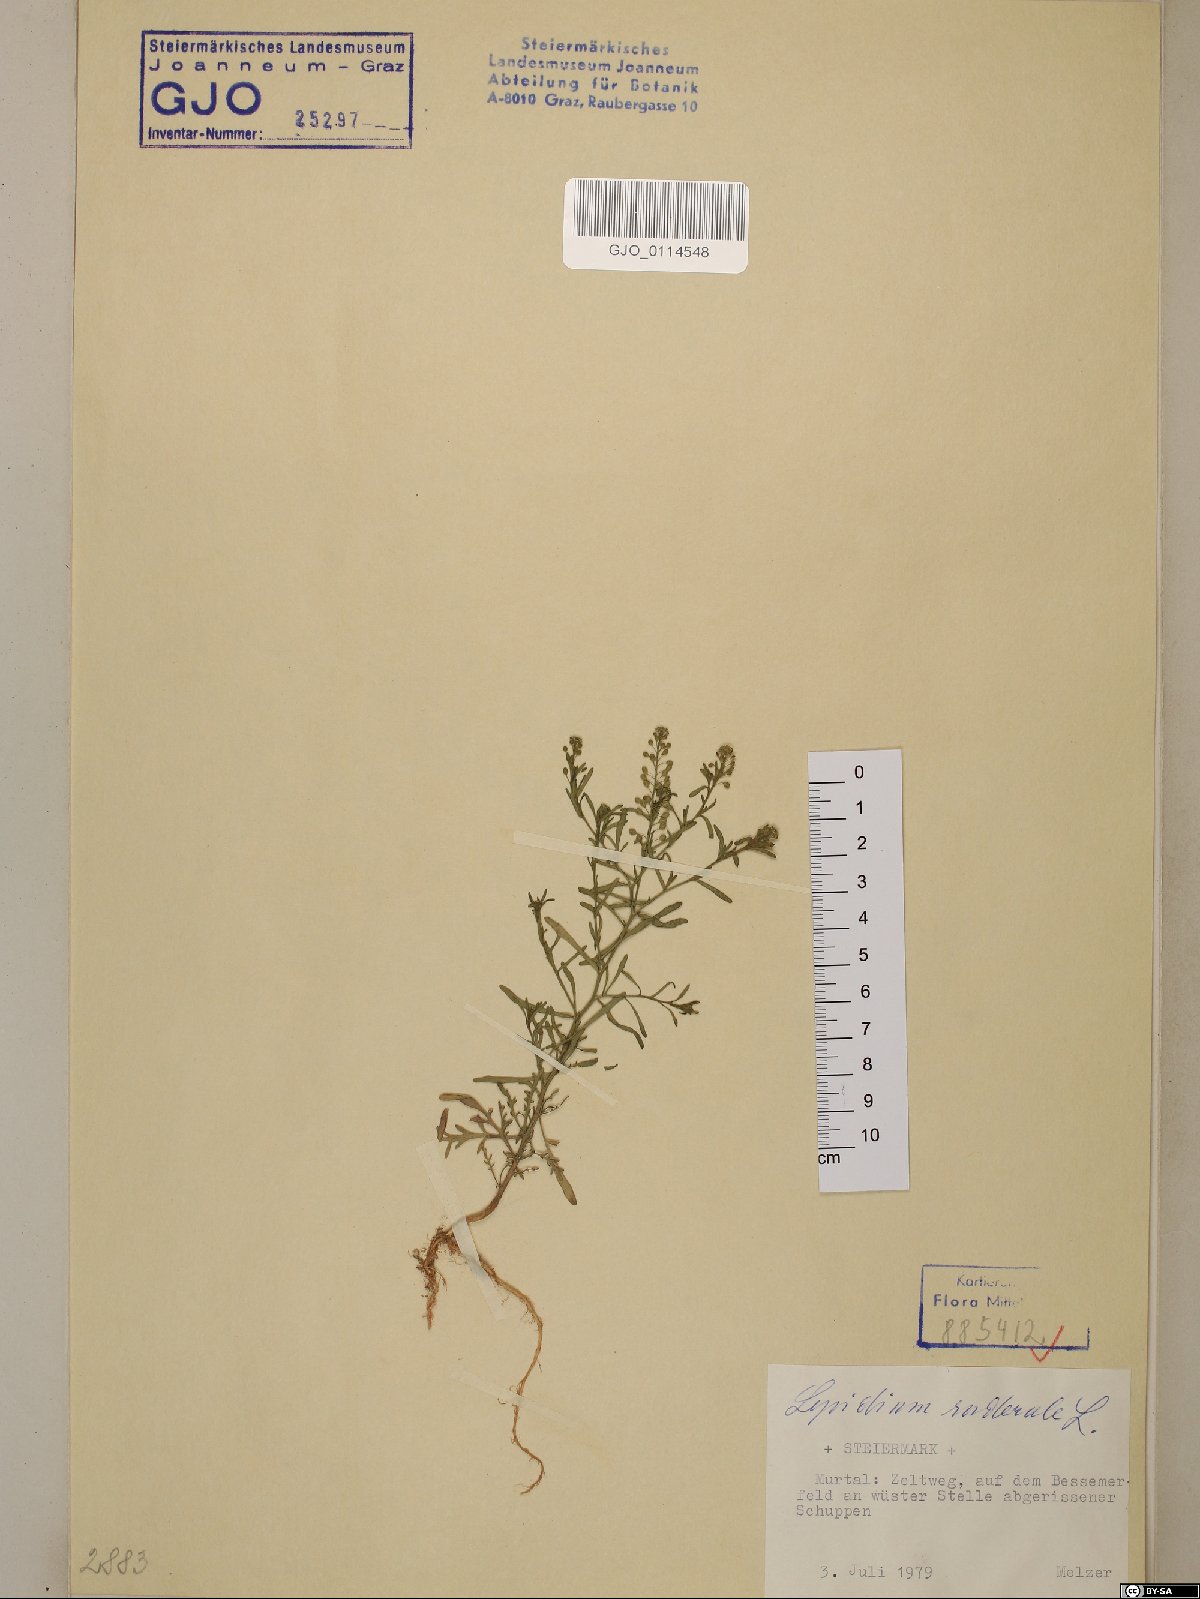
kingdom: Plantae
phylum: Tracheophyta
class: Magnoliopsida
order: Brassicales
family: Brassicaceae
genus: Lepidium
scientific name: Lepidium ruderale
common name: Narrow-leaved pepperwort
